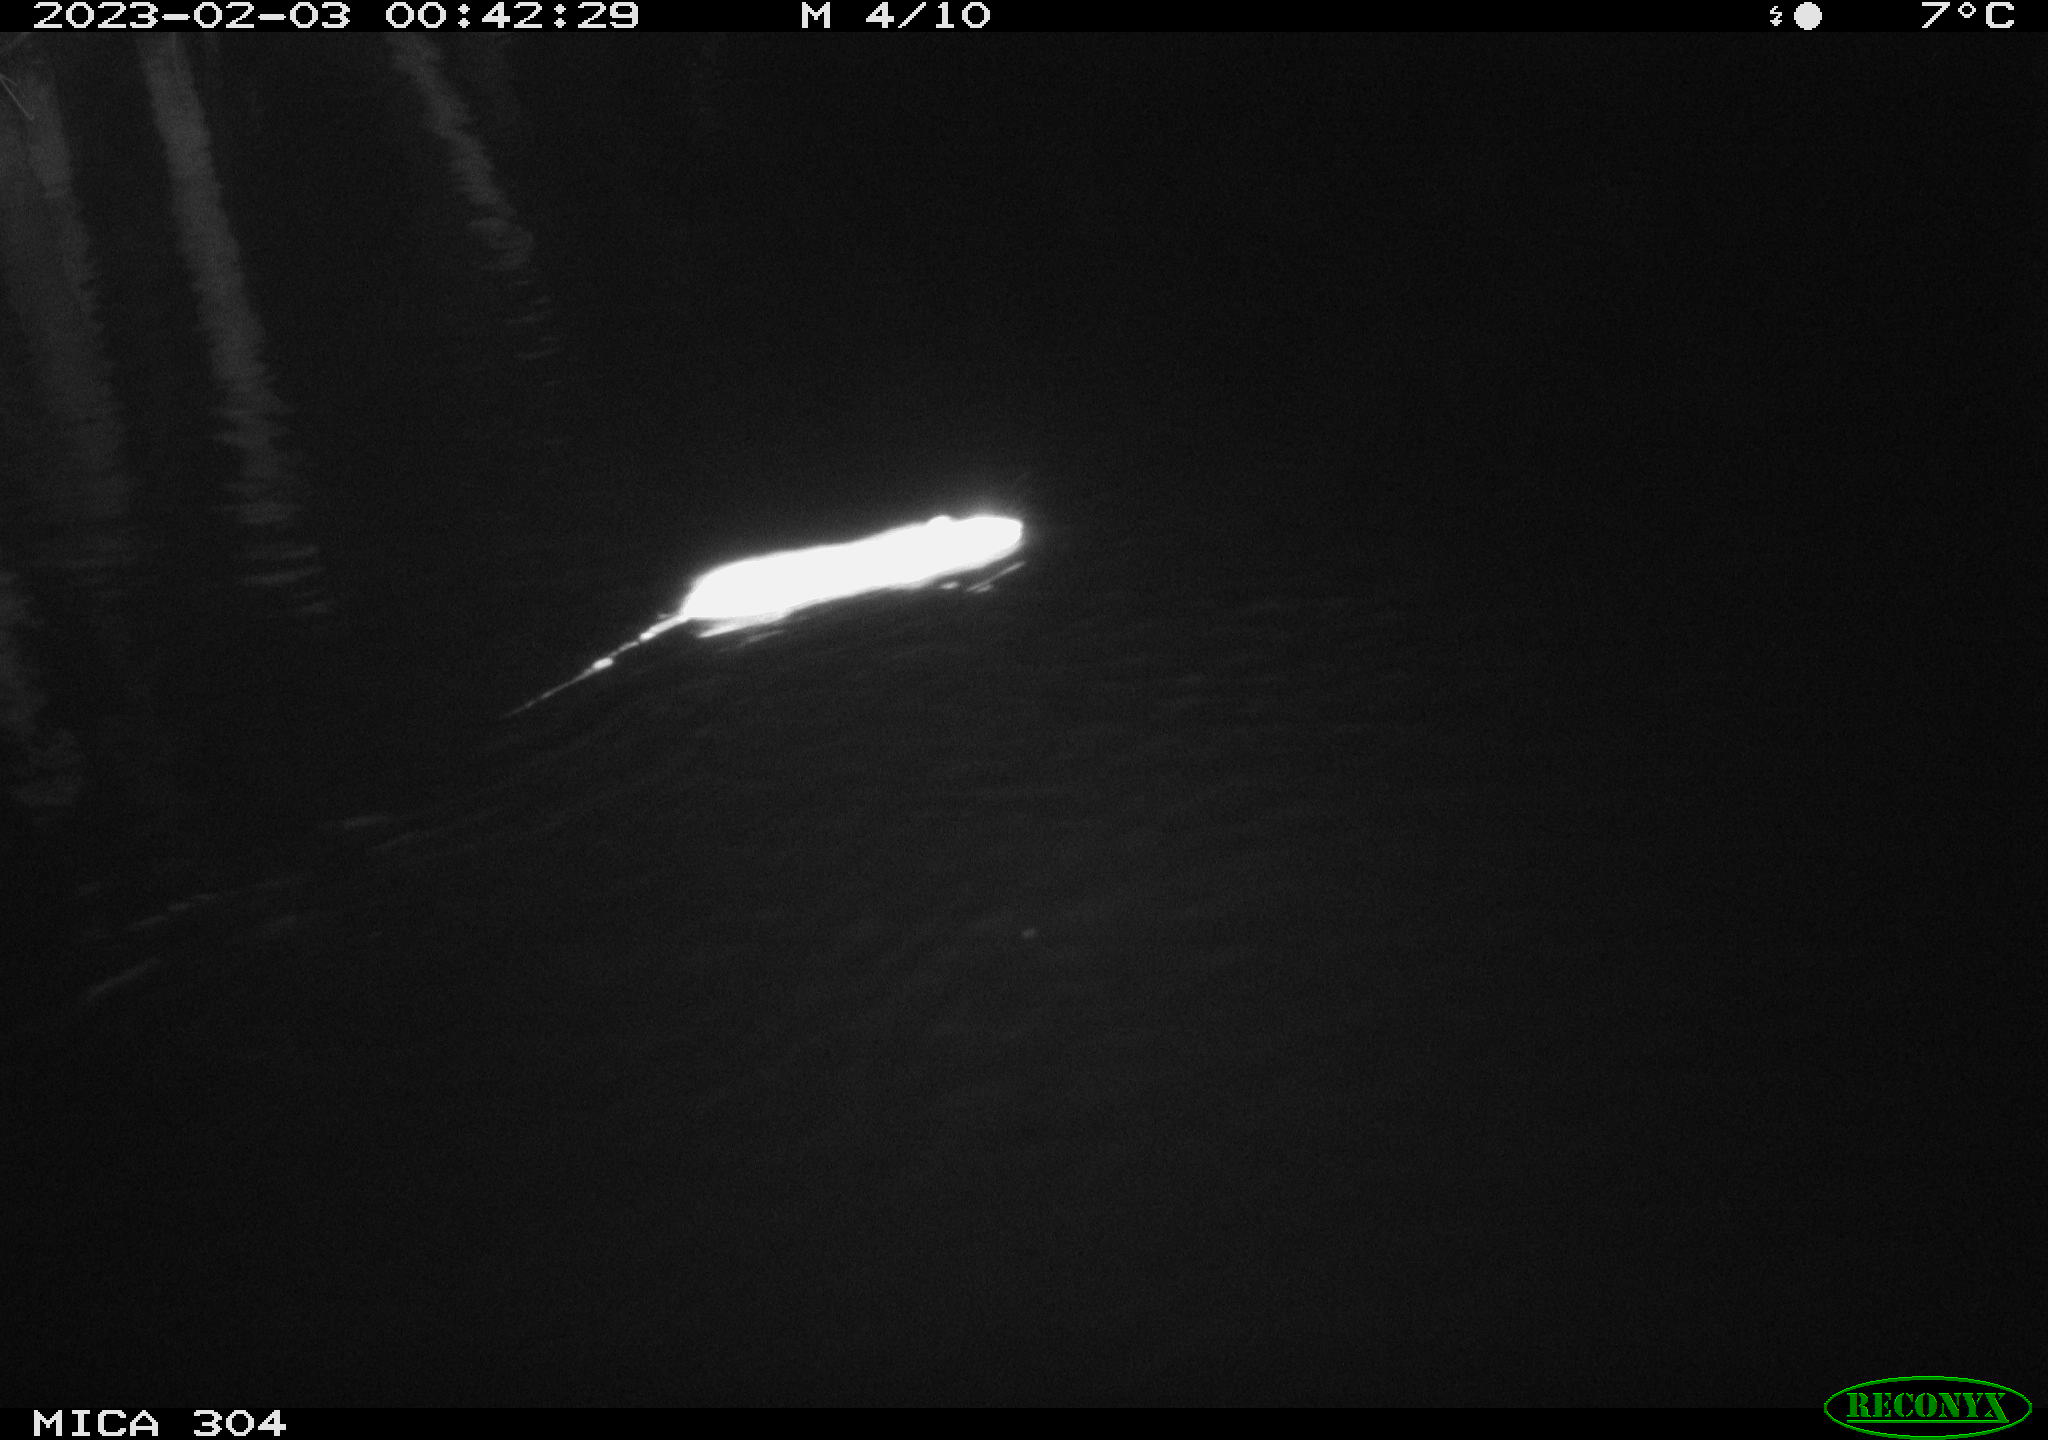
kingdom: Animalia
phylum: Chordata
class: Mammalia
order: Rodentia
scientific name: Rodentia
